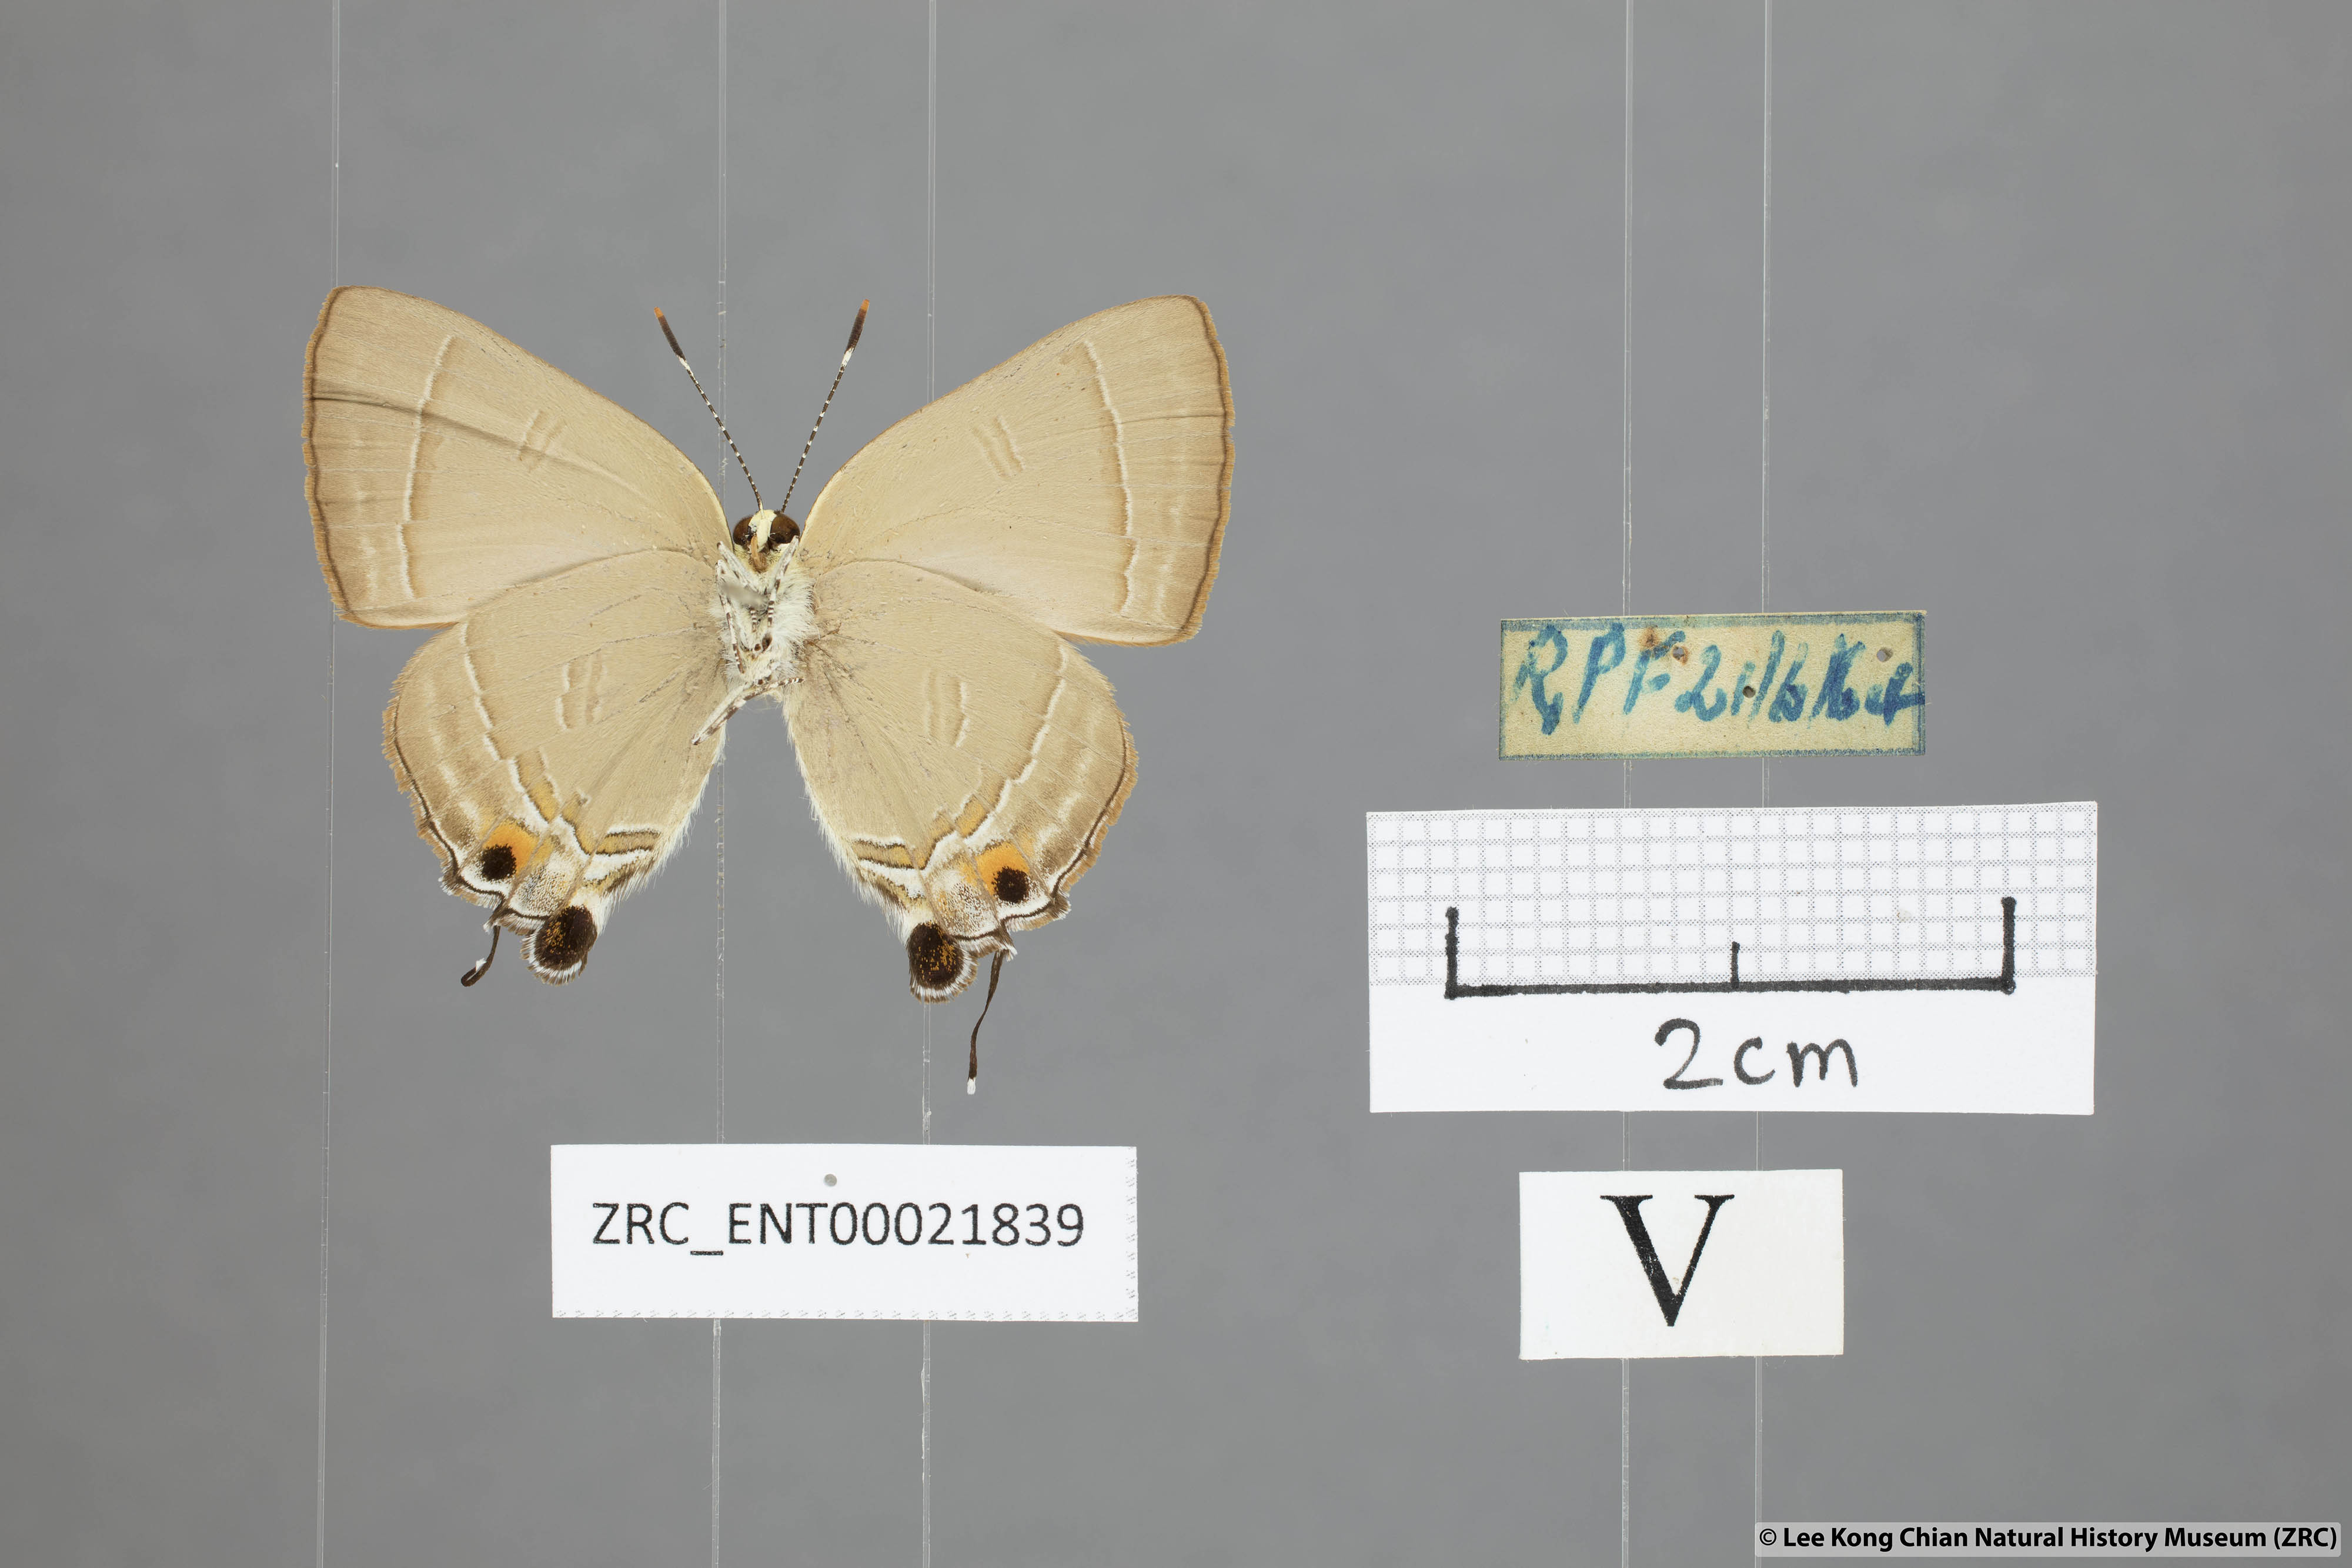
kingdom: Animalia
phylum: Arthropoda
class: Insecta
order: Lepidoptera
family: Lycaenidae
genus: Rapala
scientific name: Rapala iarbas
